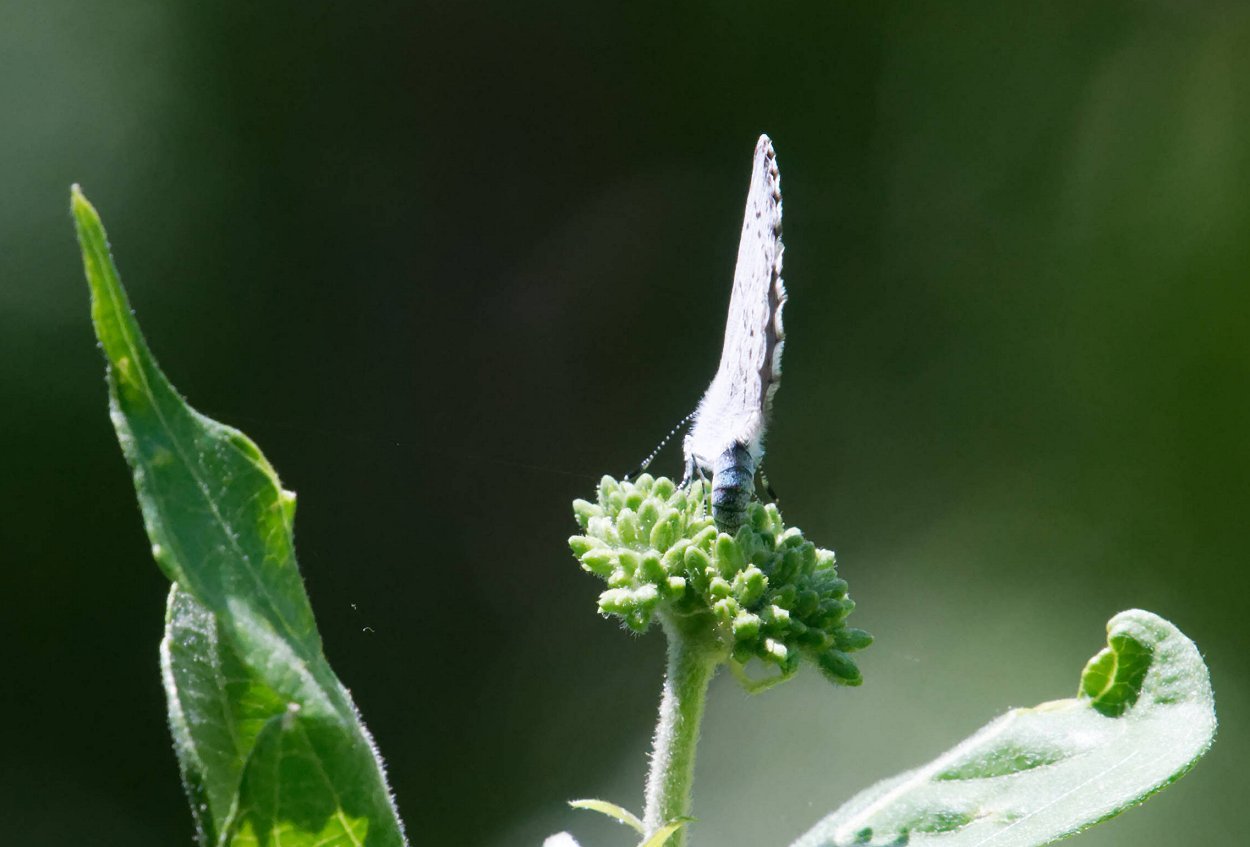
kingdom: Animalia
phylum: Arthropoda
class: Insecta
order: Lepidoptera
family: Lycaenidae
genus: Celastrina
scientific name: Celastrina lucia
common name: Northern Spring Azure
